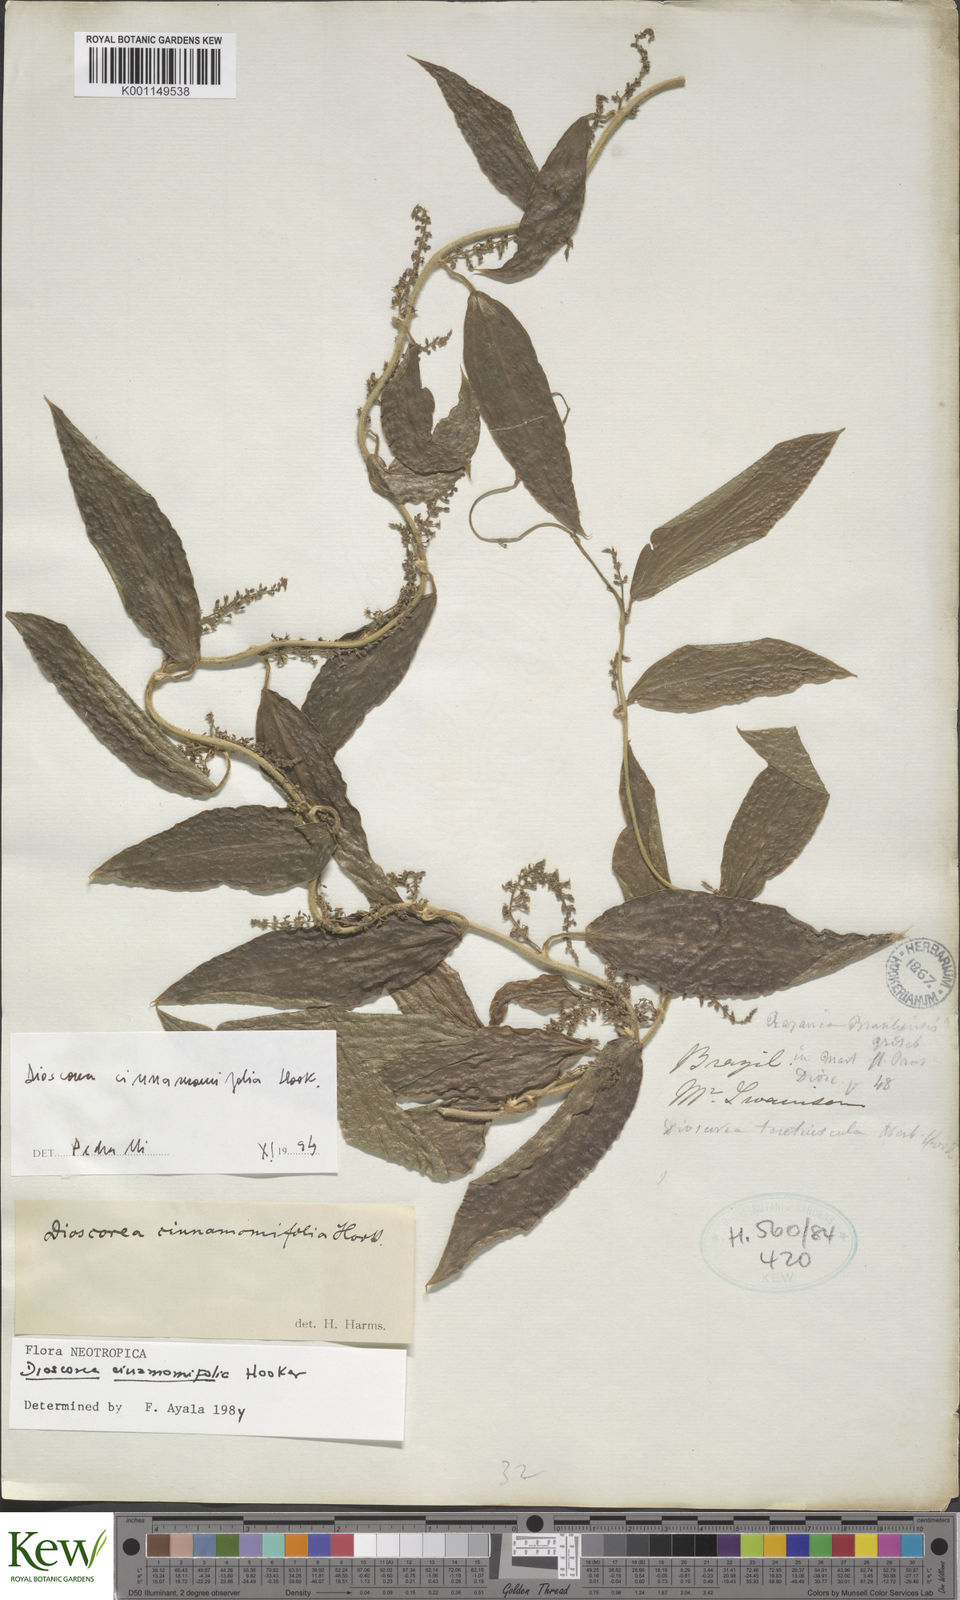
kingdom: Plantae
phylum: Tracheophyta
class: Liliopsida
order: Dioscoreales
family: Dioscoreaceae
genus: Dioscorea
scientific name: Dioscorea cinnamomifolia
